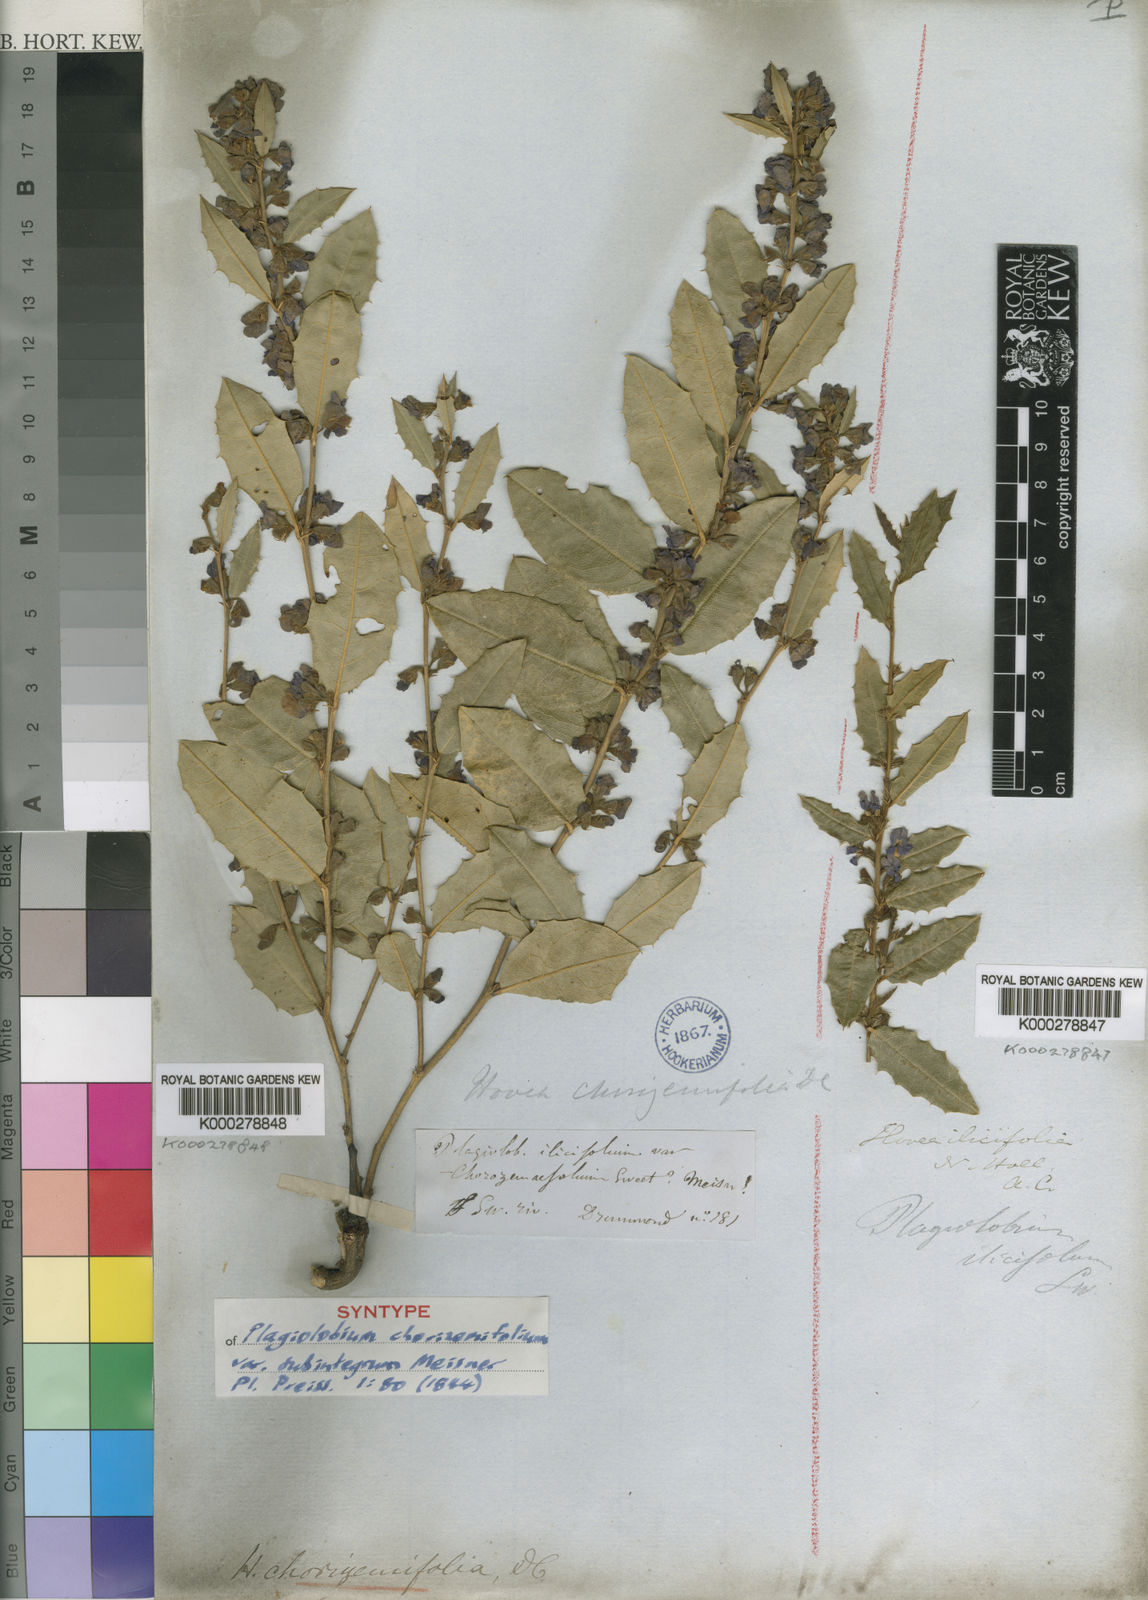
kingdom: Plantae
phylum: Tracheophyta
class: Magnoliopsida
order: Fabales
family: Fabaceae
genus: Hovea
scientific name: Hovea chorizemifolia
